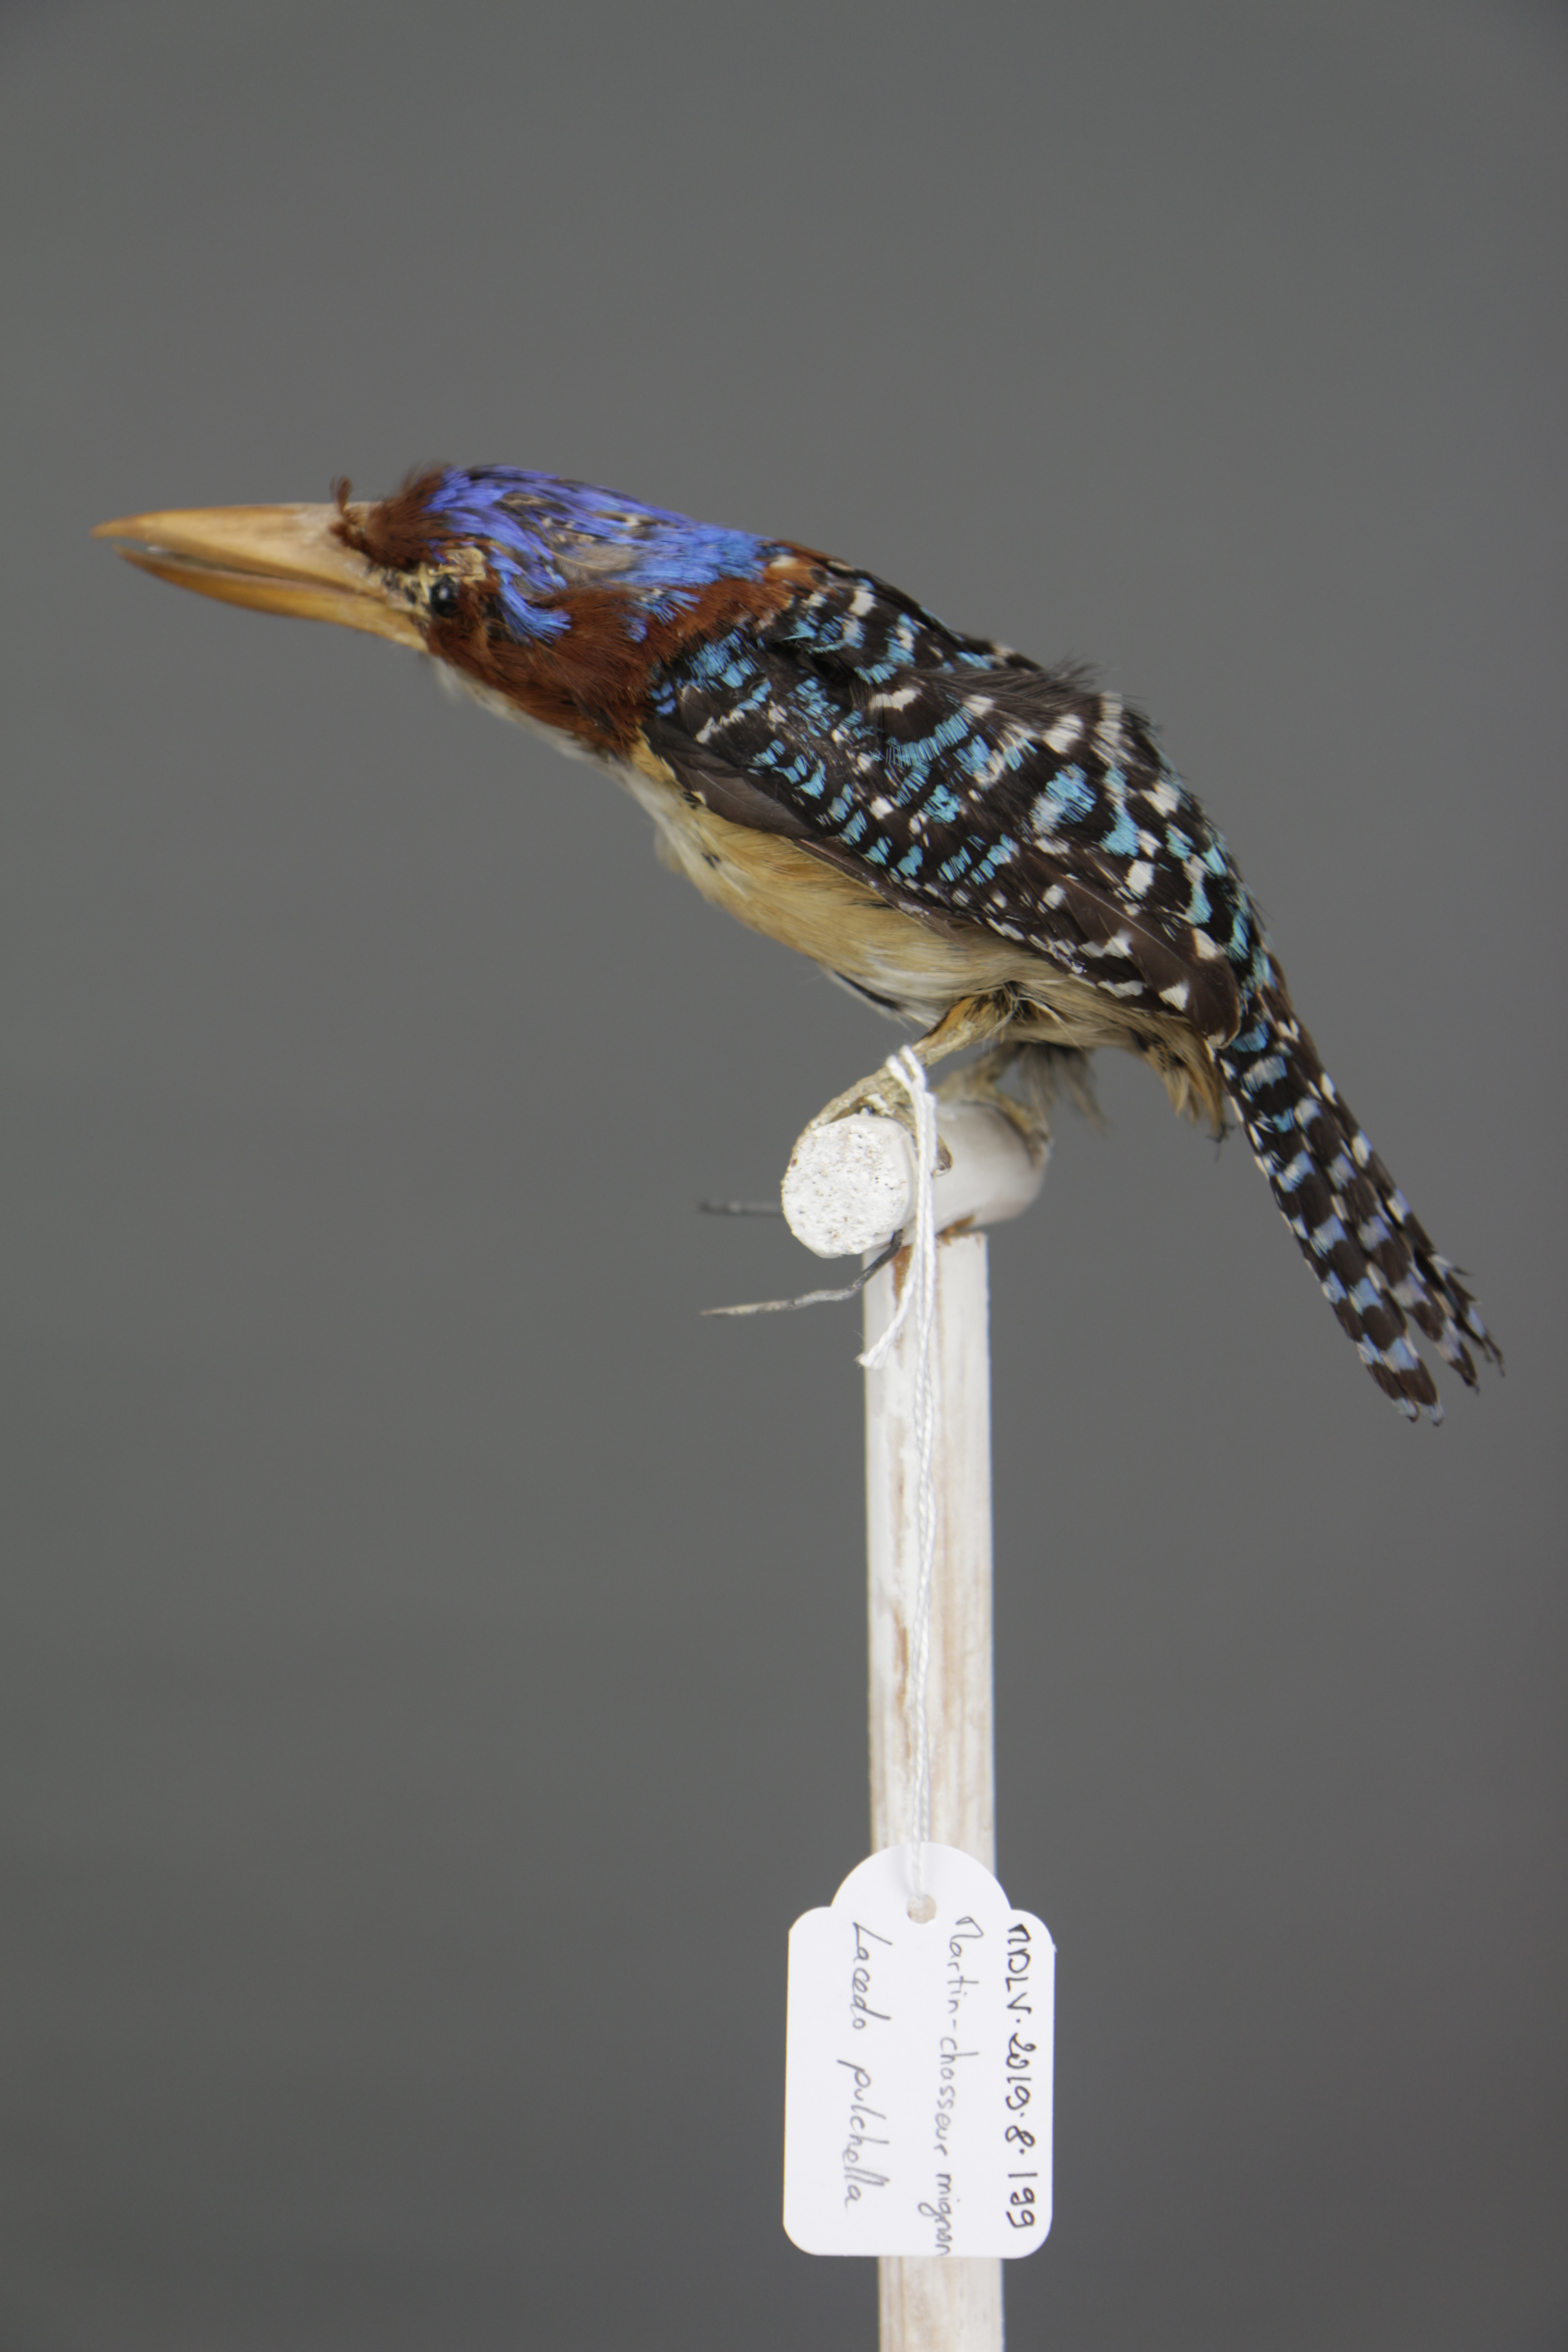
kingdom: Animalia
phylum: Chordata
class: Aves
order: Coraciiformes
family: Alcedinidae
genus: Lacedo
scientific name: Lacedo pulchella
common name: Banded kingfisher
